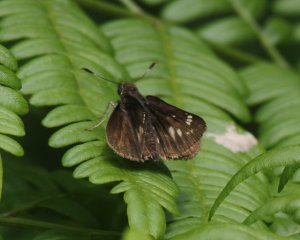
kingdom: Animalia
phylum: Arthropoda
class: Insecta
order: Lepidoptera
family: Hesperiidae
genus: Mastor
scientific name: Mastor hegon
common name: Pepper and Salt Skipper
